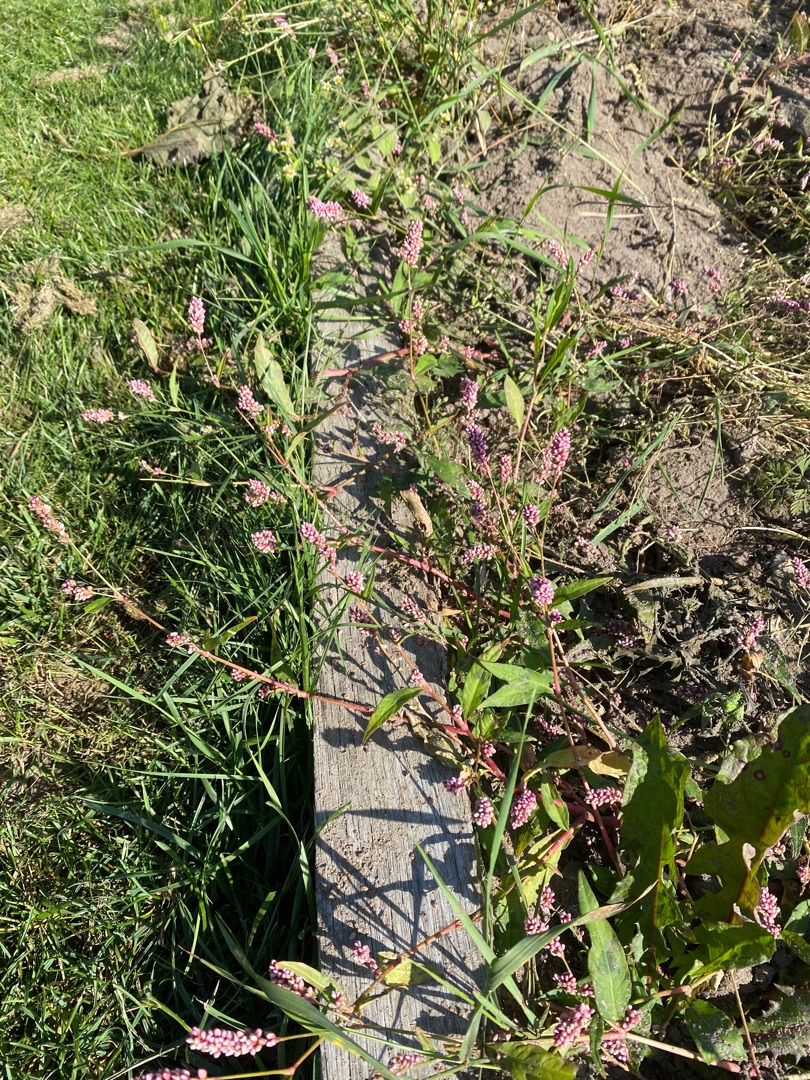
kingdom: Plantae
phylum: Tracheophyta
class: Magnoliopsida
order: Caryophyllales
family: Polygonaceae
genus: Persicaria
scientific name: Persicaria maculosa
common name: Fersken-pileurt
